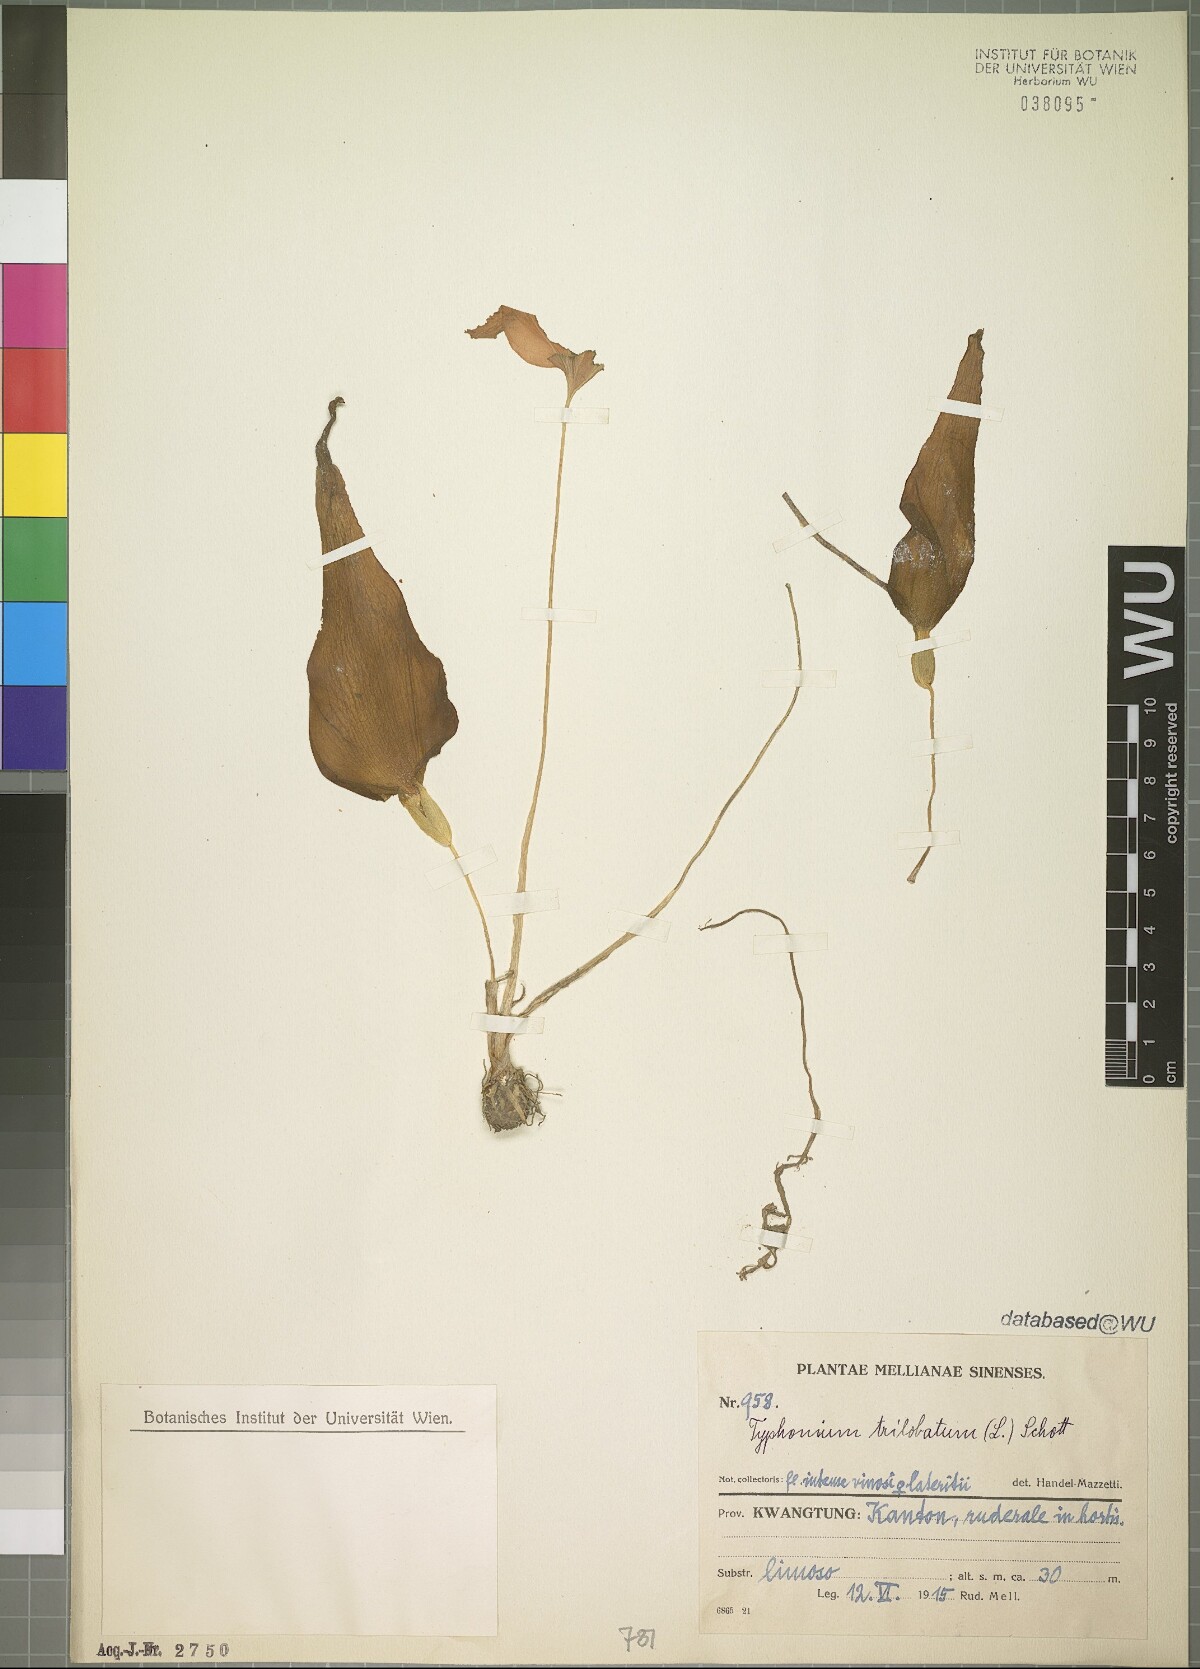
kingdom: Plantae
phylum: Tracheophyta
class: Liliopsida
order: Alismatales
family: Araceae
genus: Typhonium
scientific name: Typhonium trilobatum
